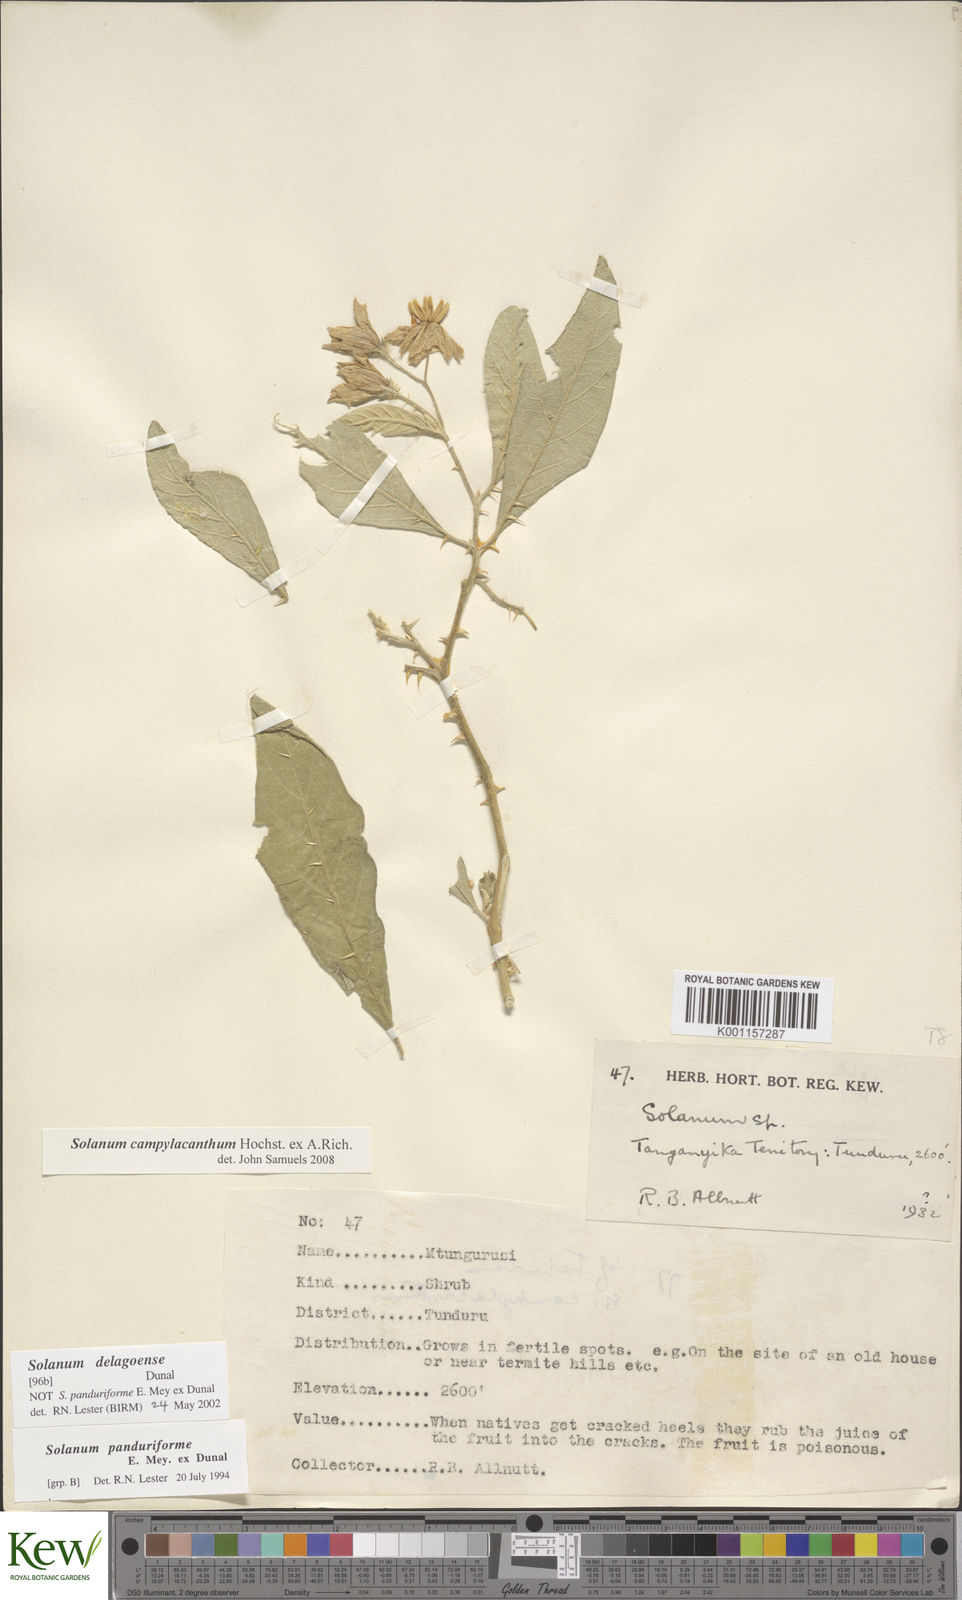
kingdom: Plantae
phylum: Tracheophyta
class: Magnoliopsida
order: Solanales
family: Solanaceae
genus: Solanum
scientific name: Solanum campylacanthum
